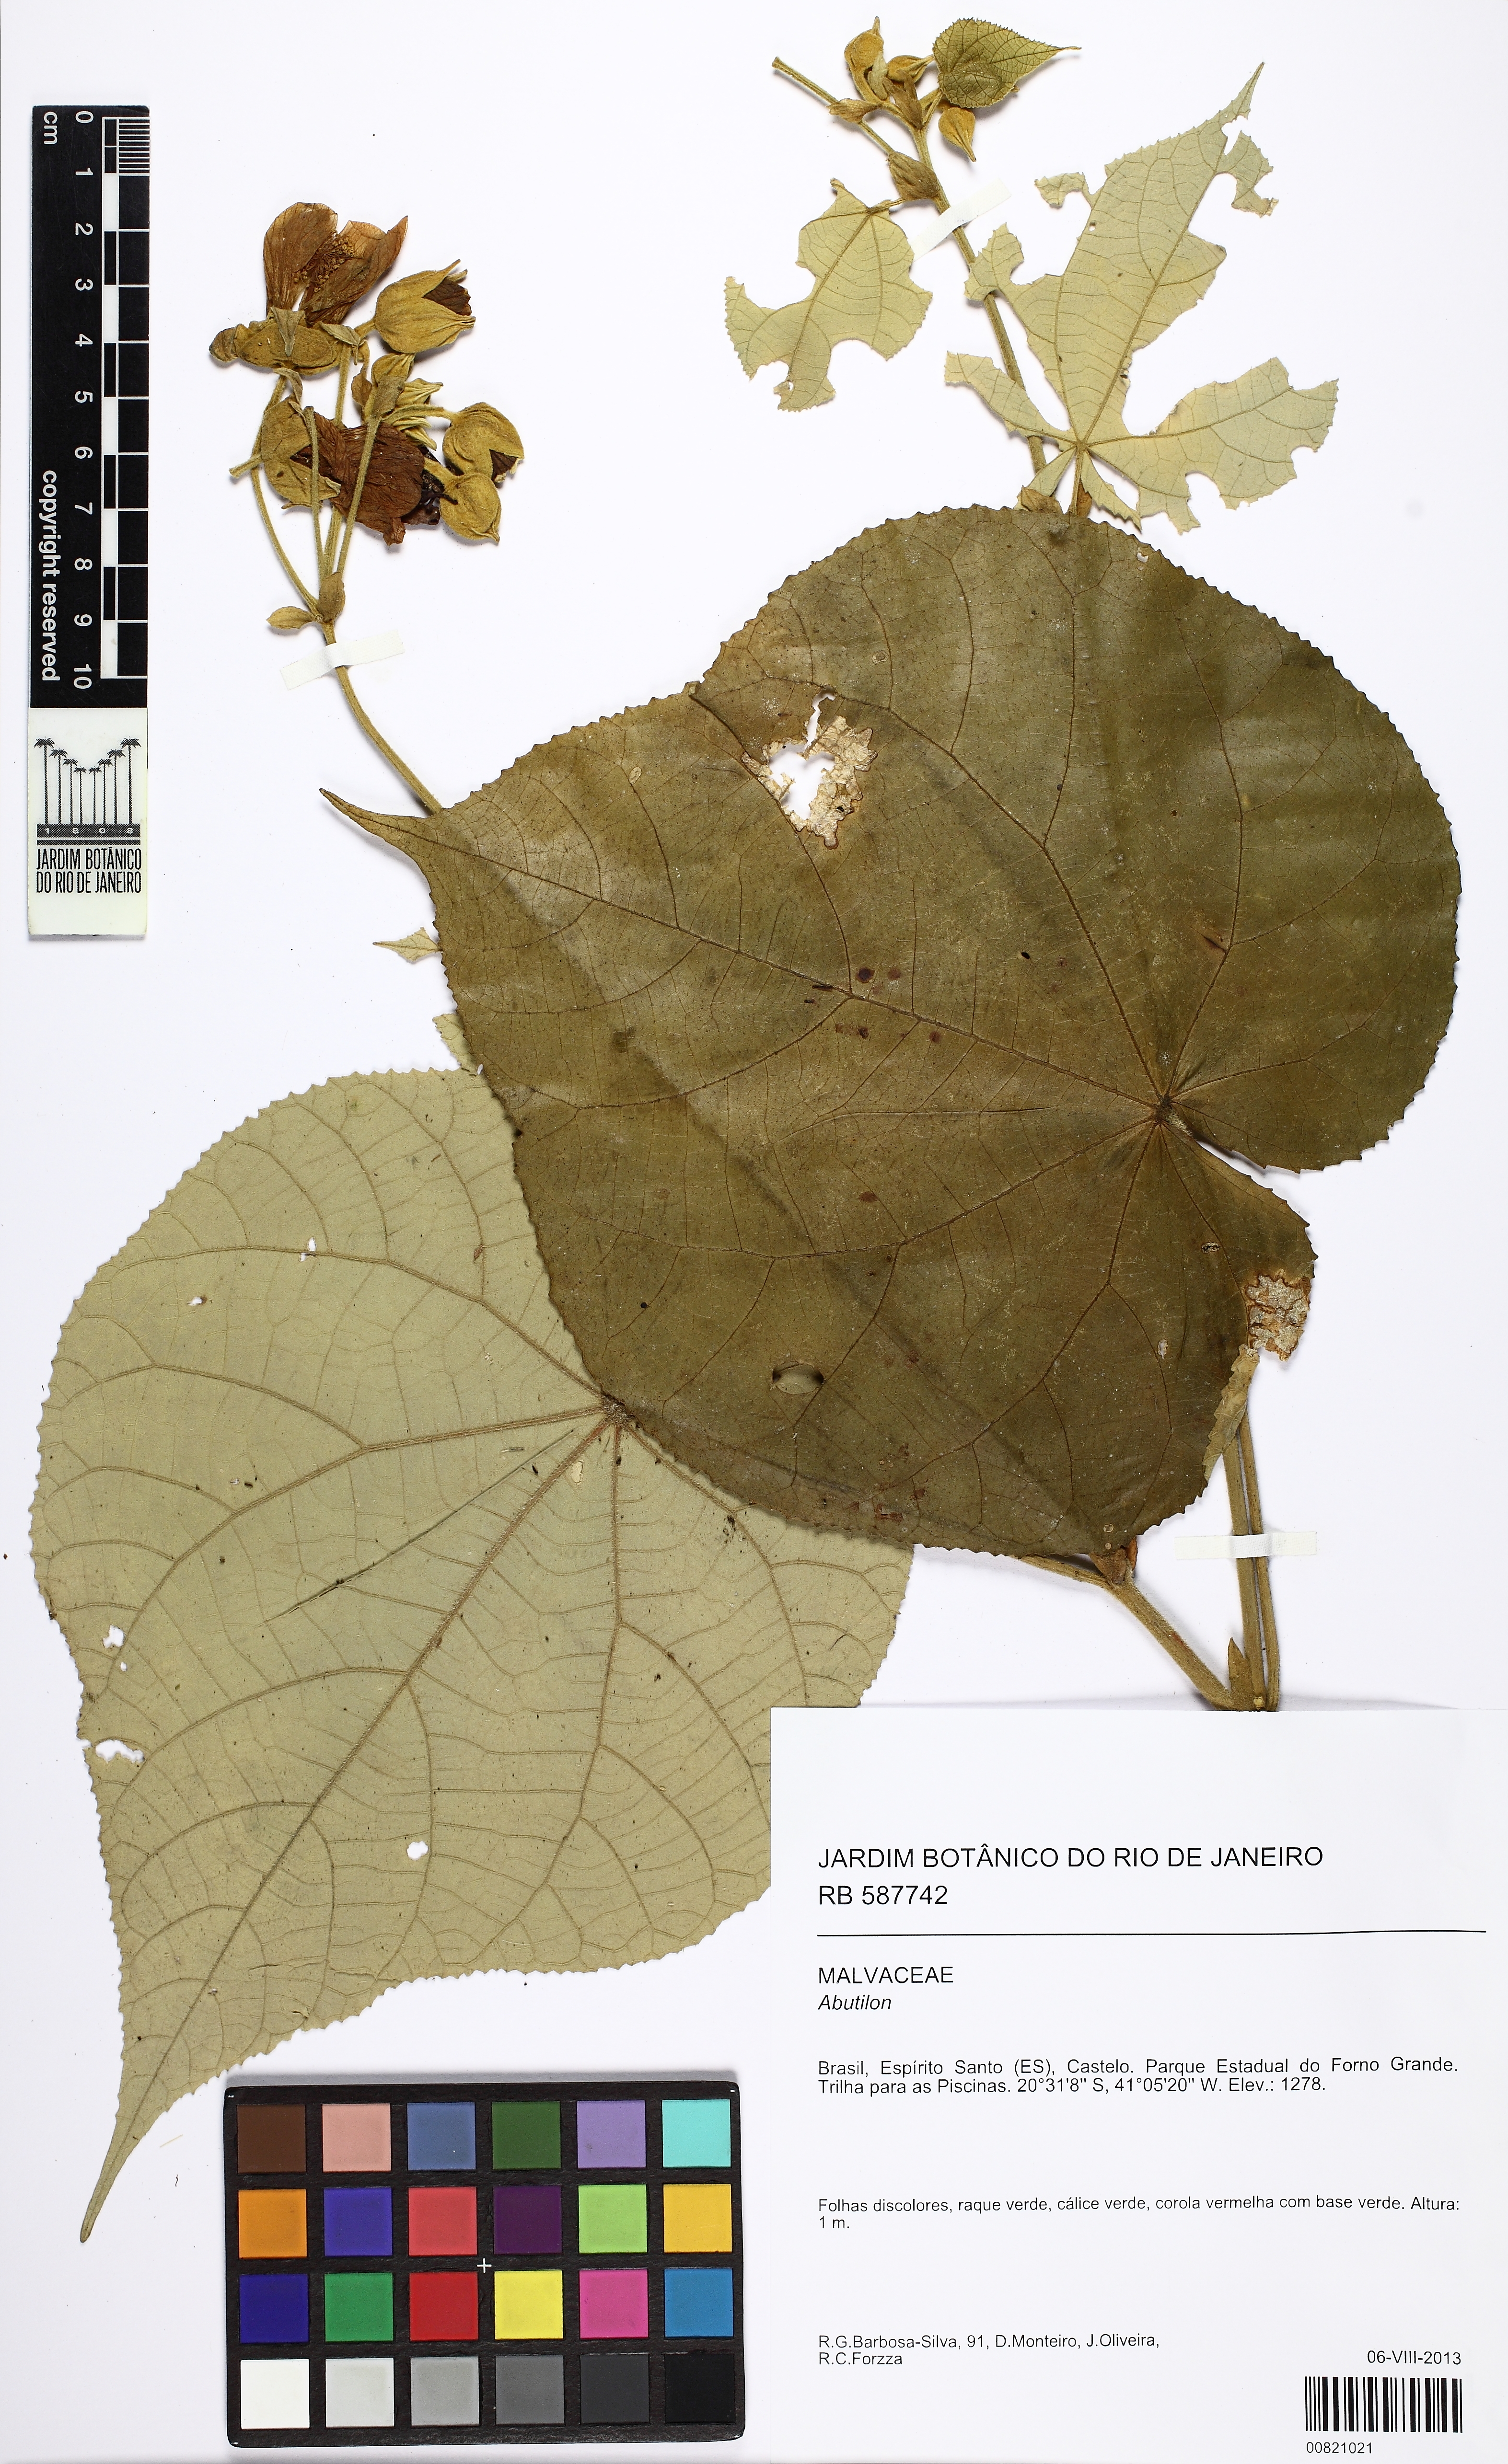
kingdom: Plantae
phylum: Tracheophyta
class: Magnoliopsida
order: Malvales
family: Malvaceae
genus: Abutilon
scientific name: Abutilon
